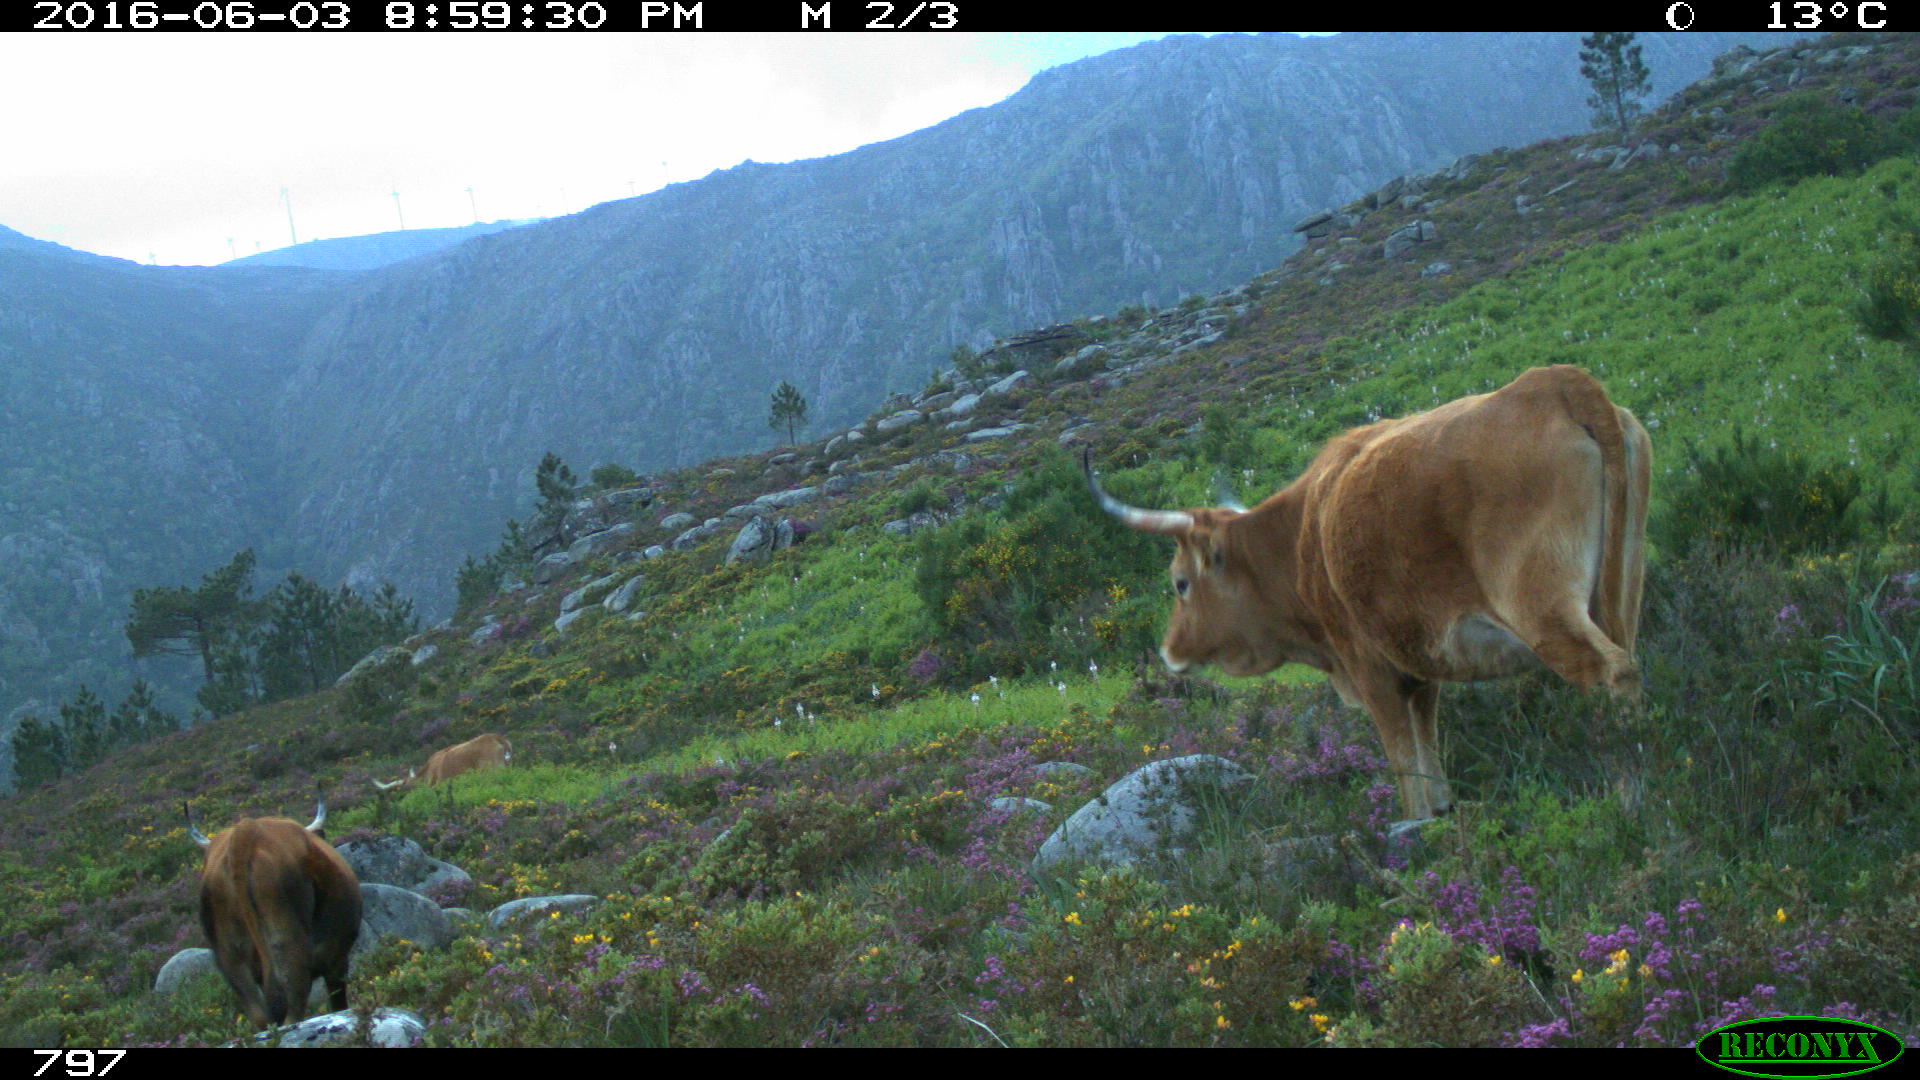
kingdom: Animalia
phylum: Chordata
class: Mammalia
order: Artiodactyla
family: Bovidae
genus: Bos
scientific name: Bos taurus
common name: Domesticated cattle
